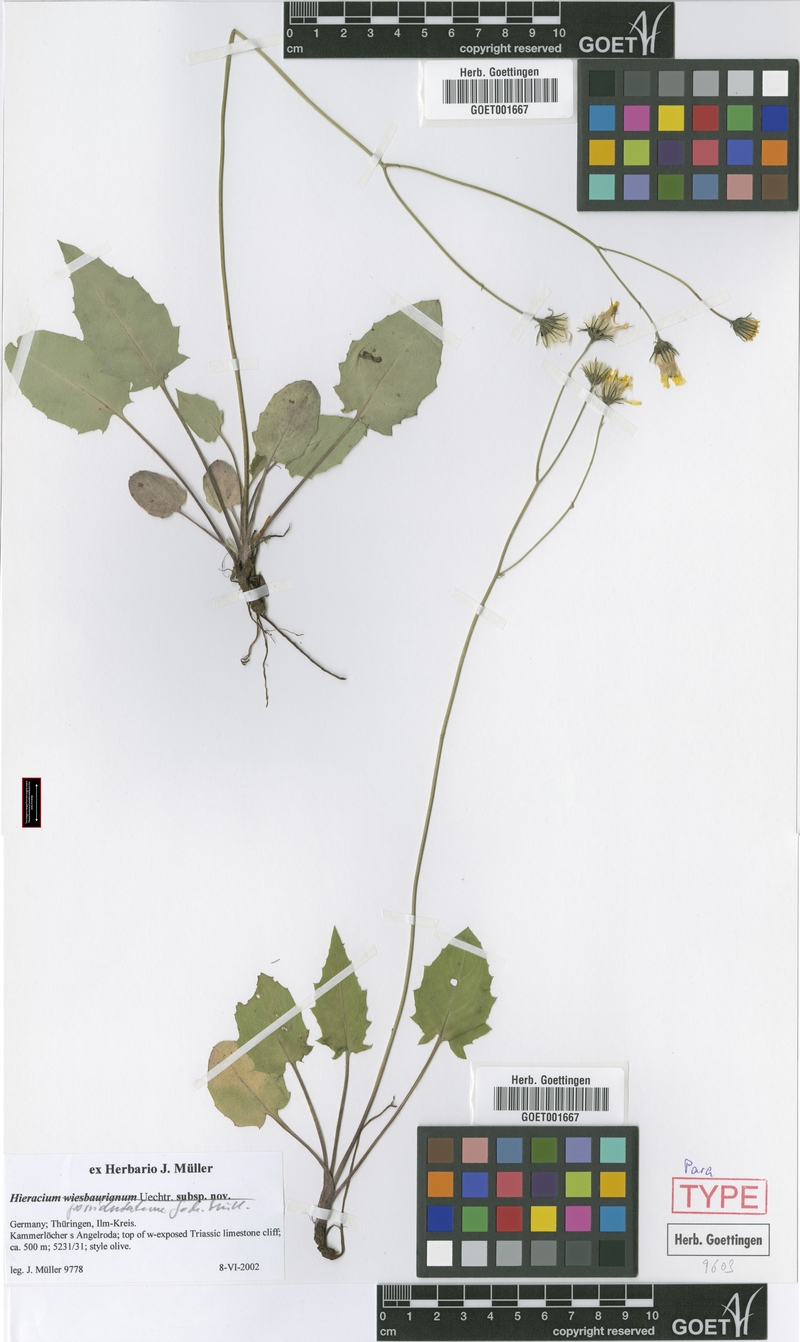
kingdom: Plantae
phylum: Tracheophyta
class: Magnoliopsida
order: Asterales
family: Asteraceae
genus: Hieracium
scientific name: Hieracium hypochoeroides
